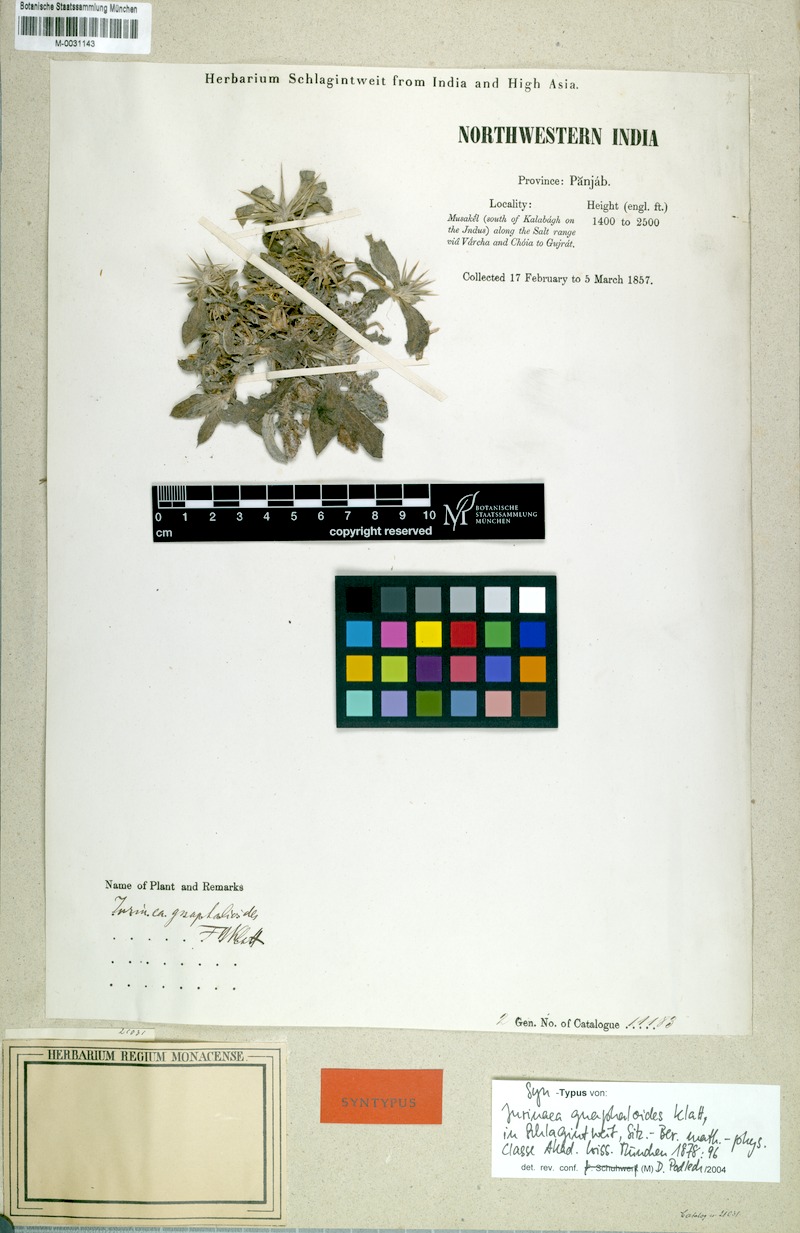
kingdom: Plantae
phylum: Tracheophyta
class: Magnoliopsida
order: Asterales
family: Asteraceae
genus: Centaurea
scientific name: Centaurea bruguierana
